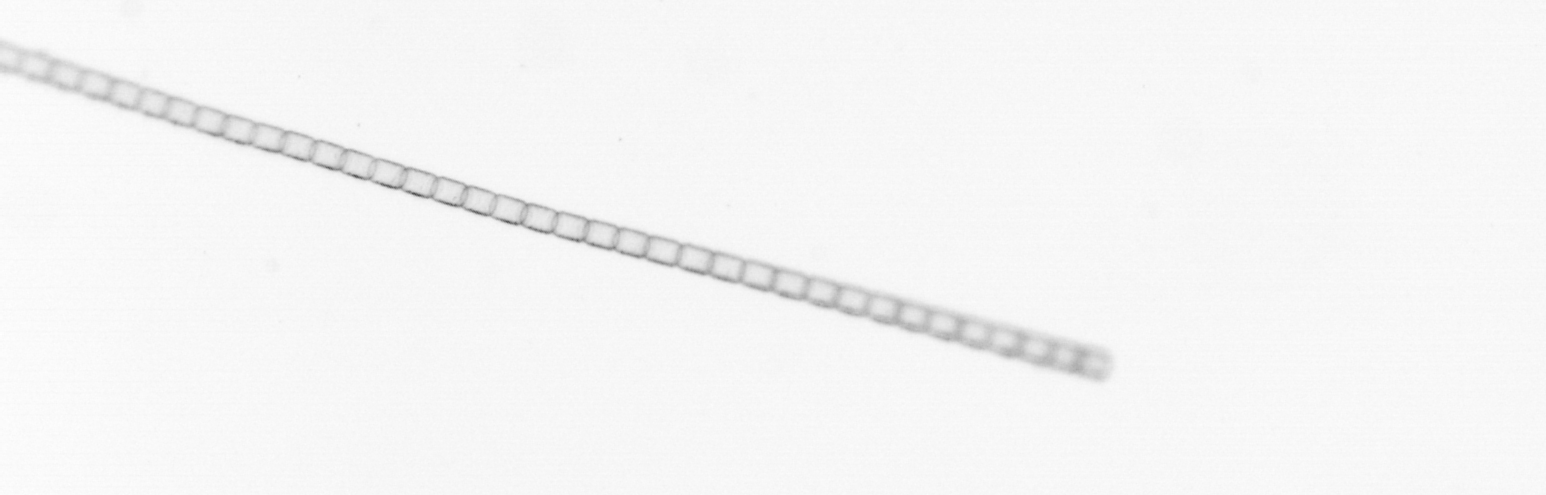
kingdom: Chromista
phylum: Ochrophyta
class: Bacillariophyceae
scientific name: Bacillariophyceae
